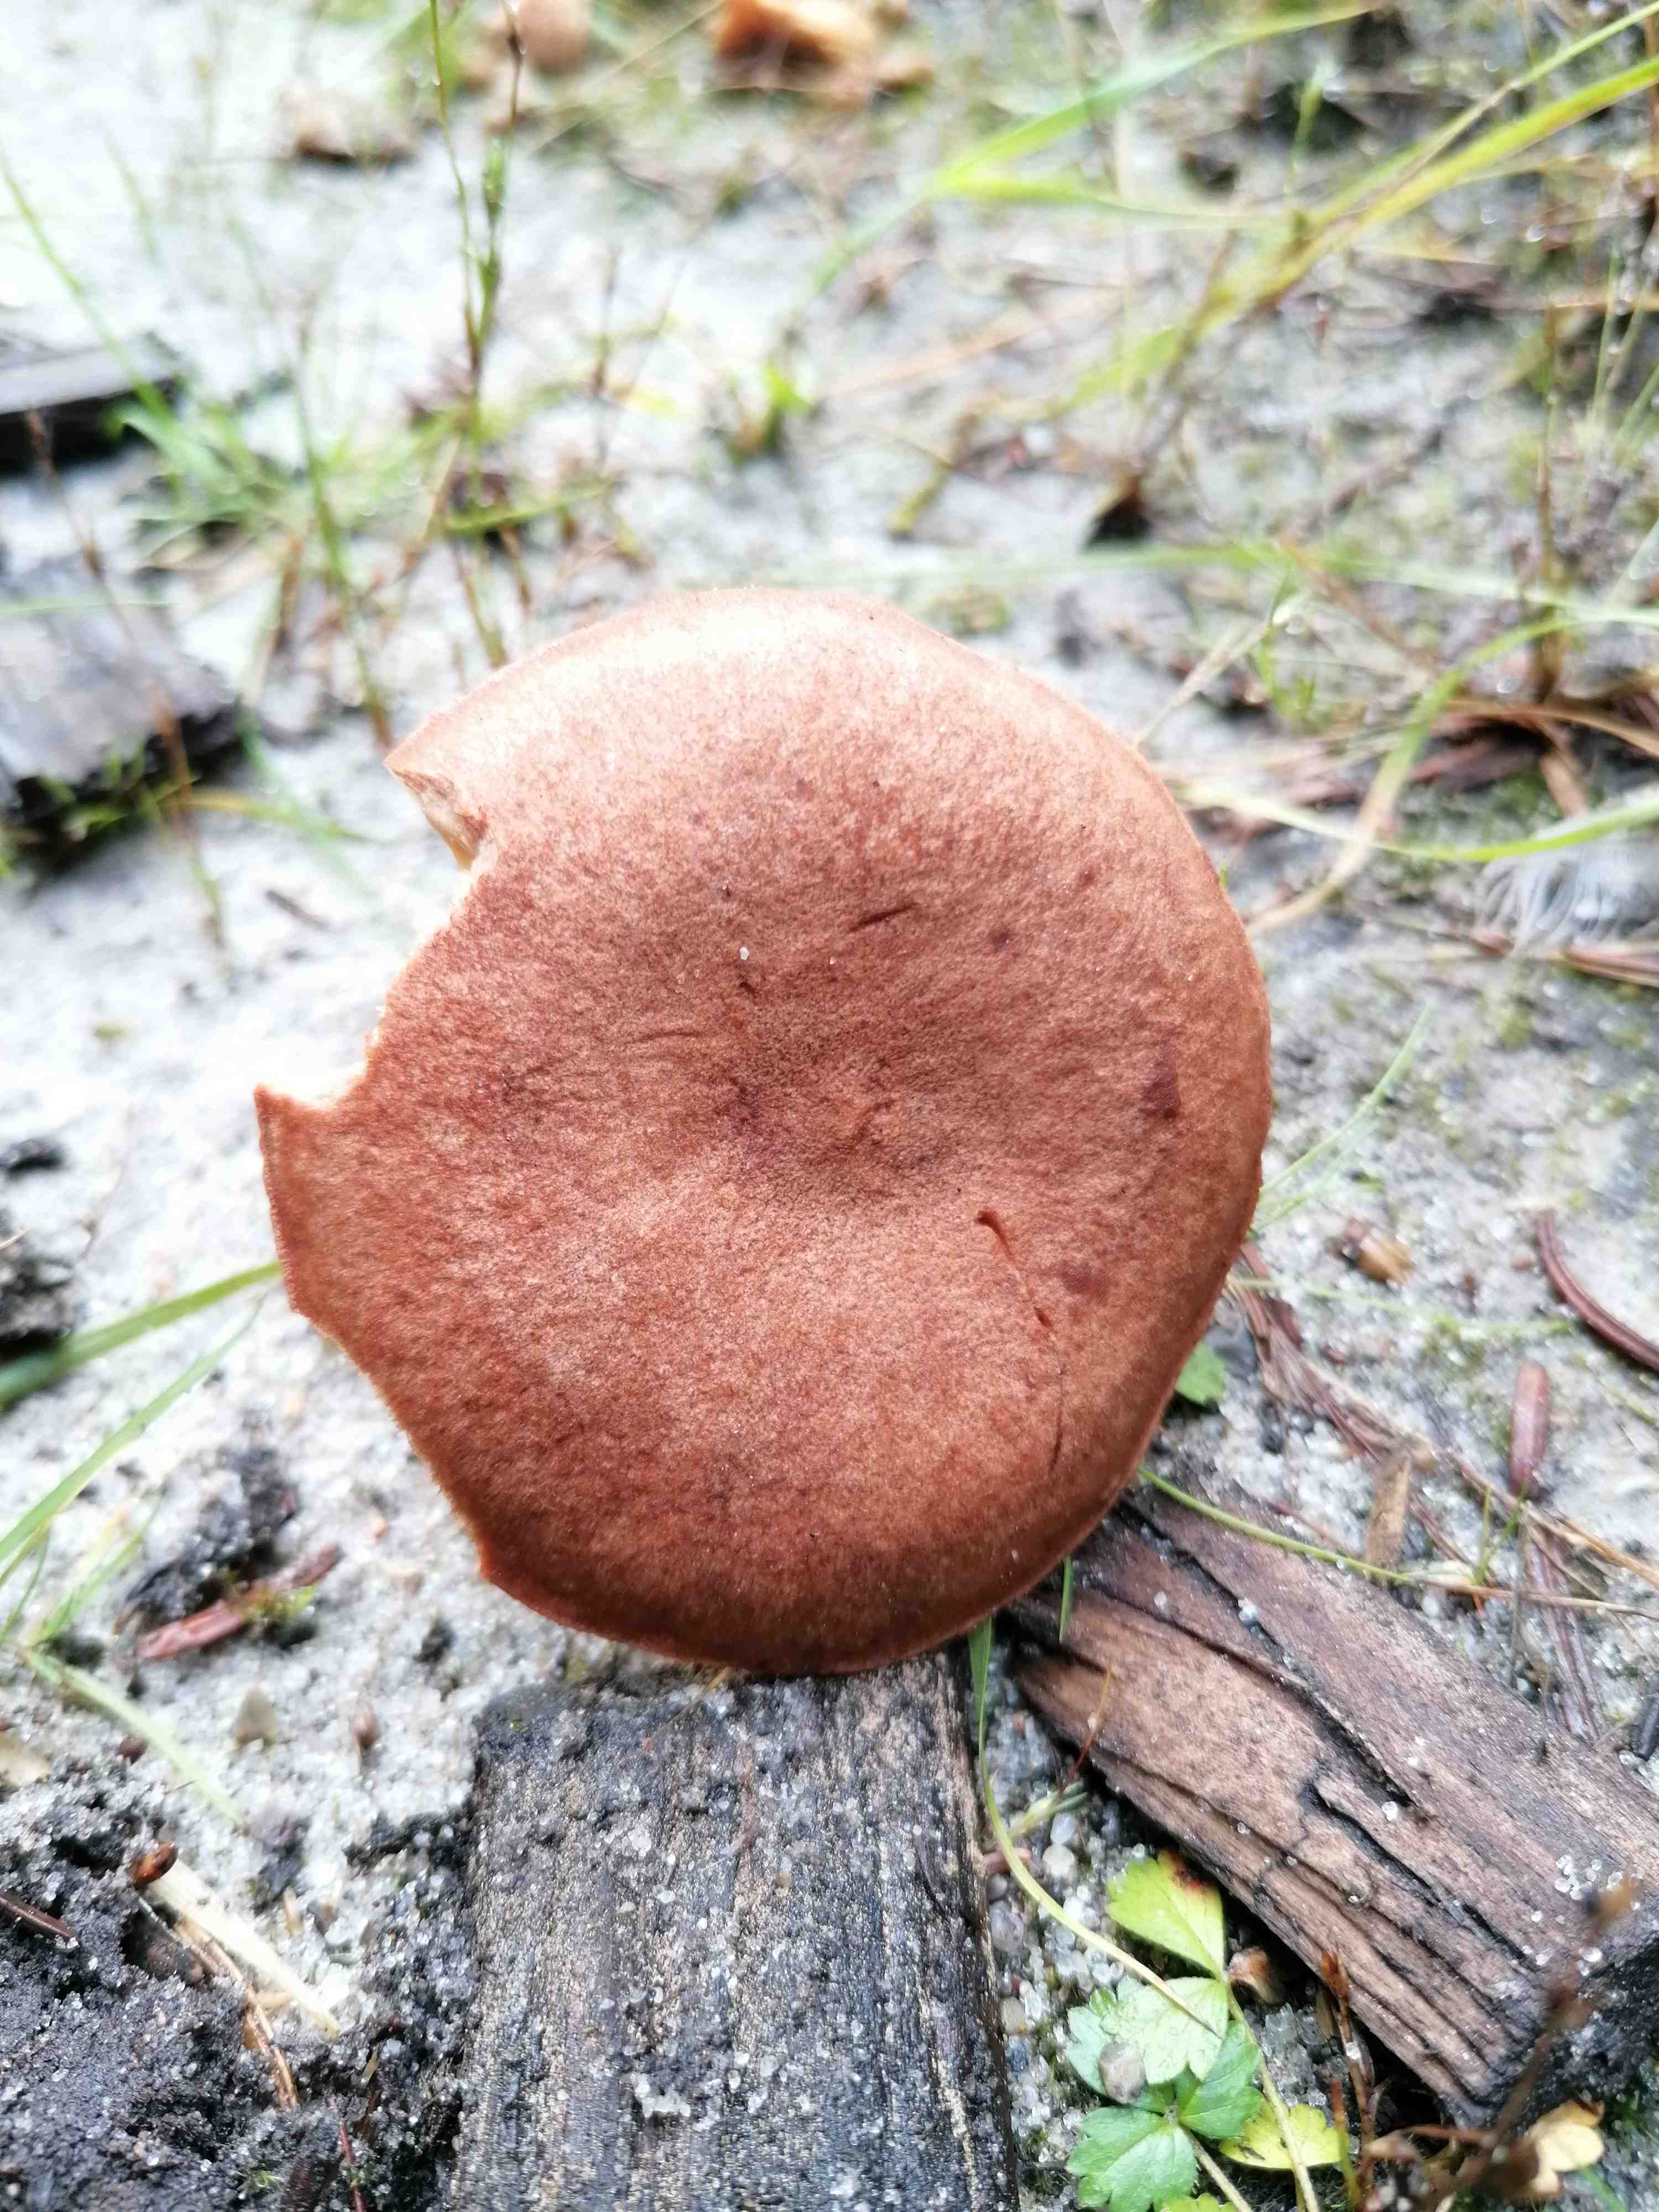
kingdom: Fungi
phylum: Basidiomycota
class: Agaricomycetes
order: Russulales
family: Russulaceae
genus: Lactarius
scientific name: Lactarius helvus
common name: mose-mælkehat
